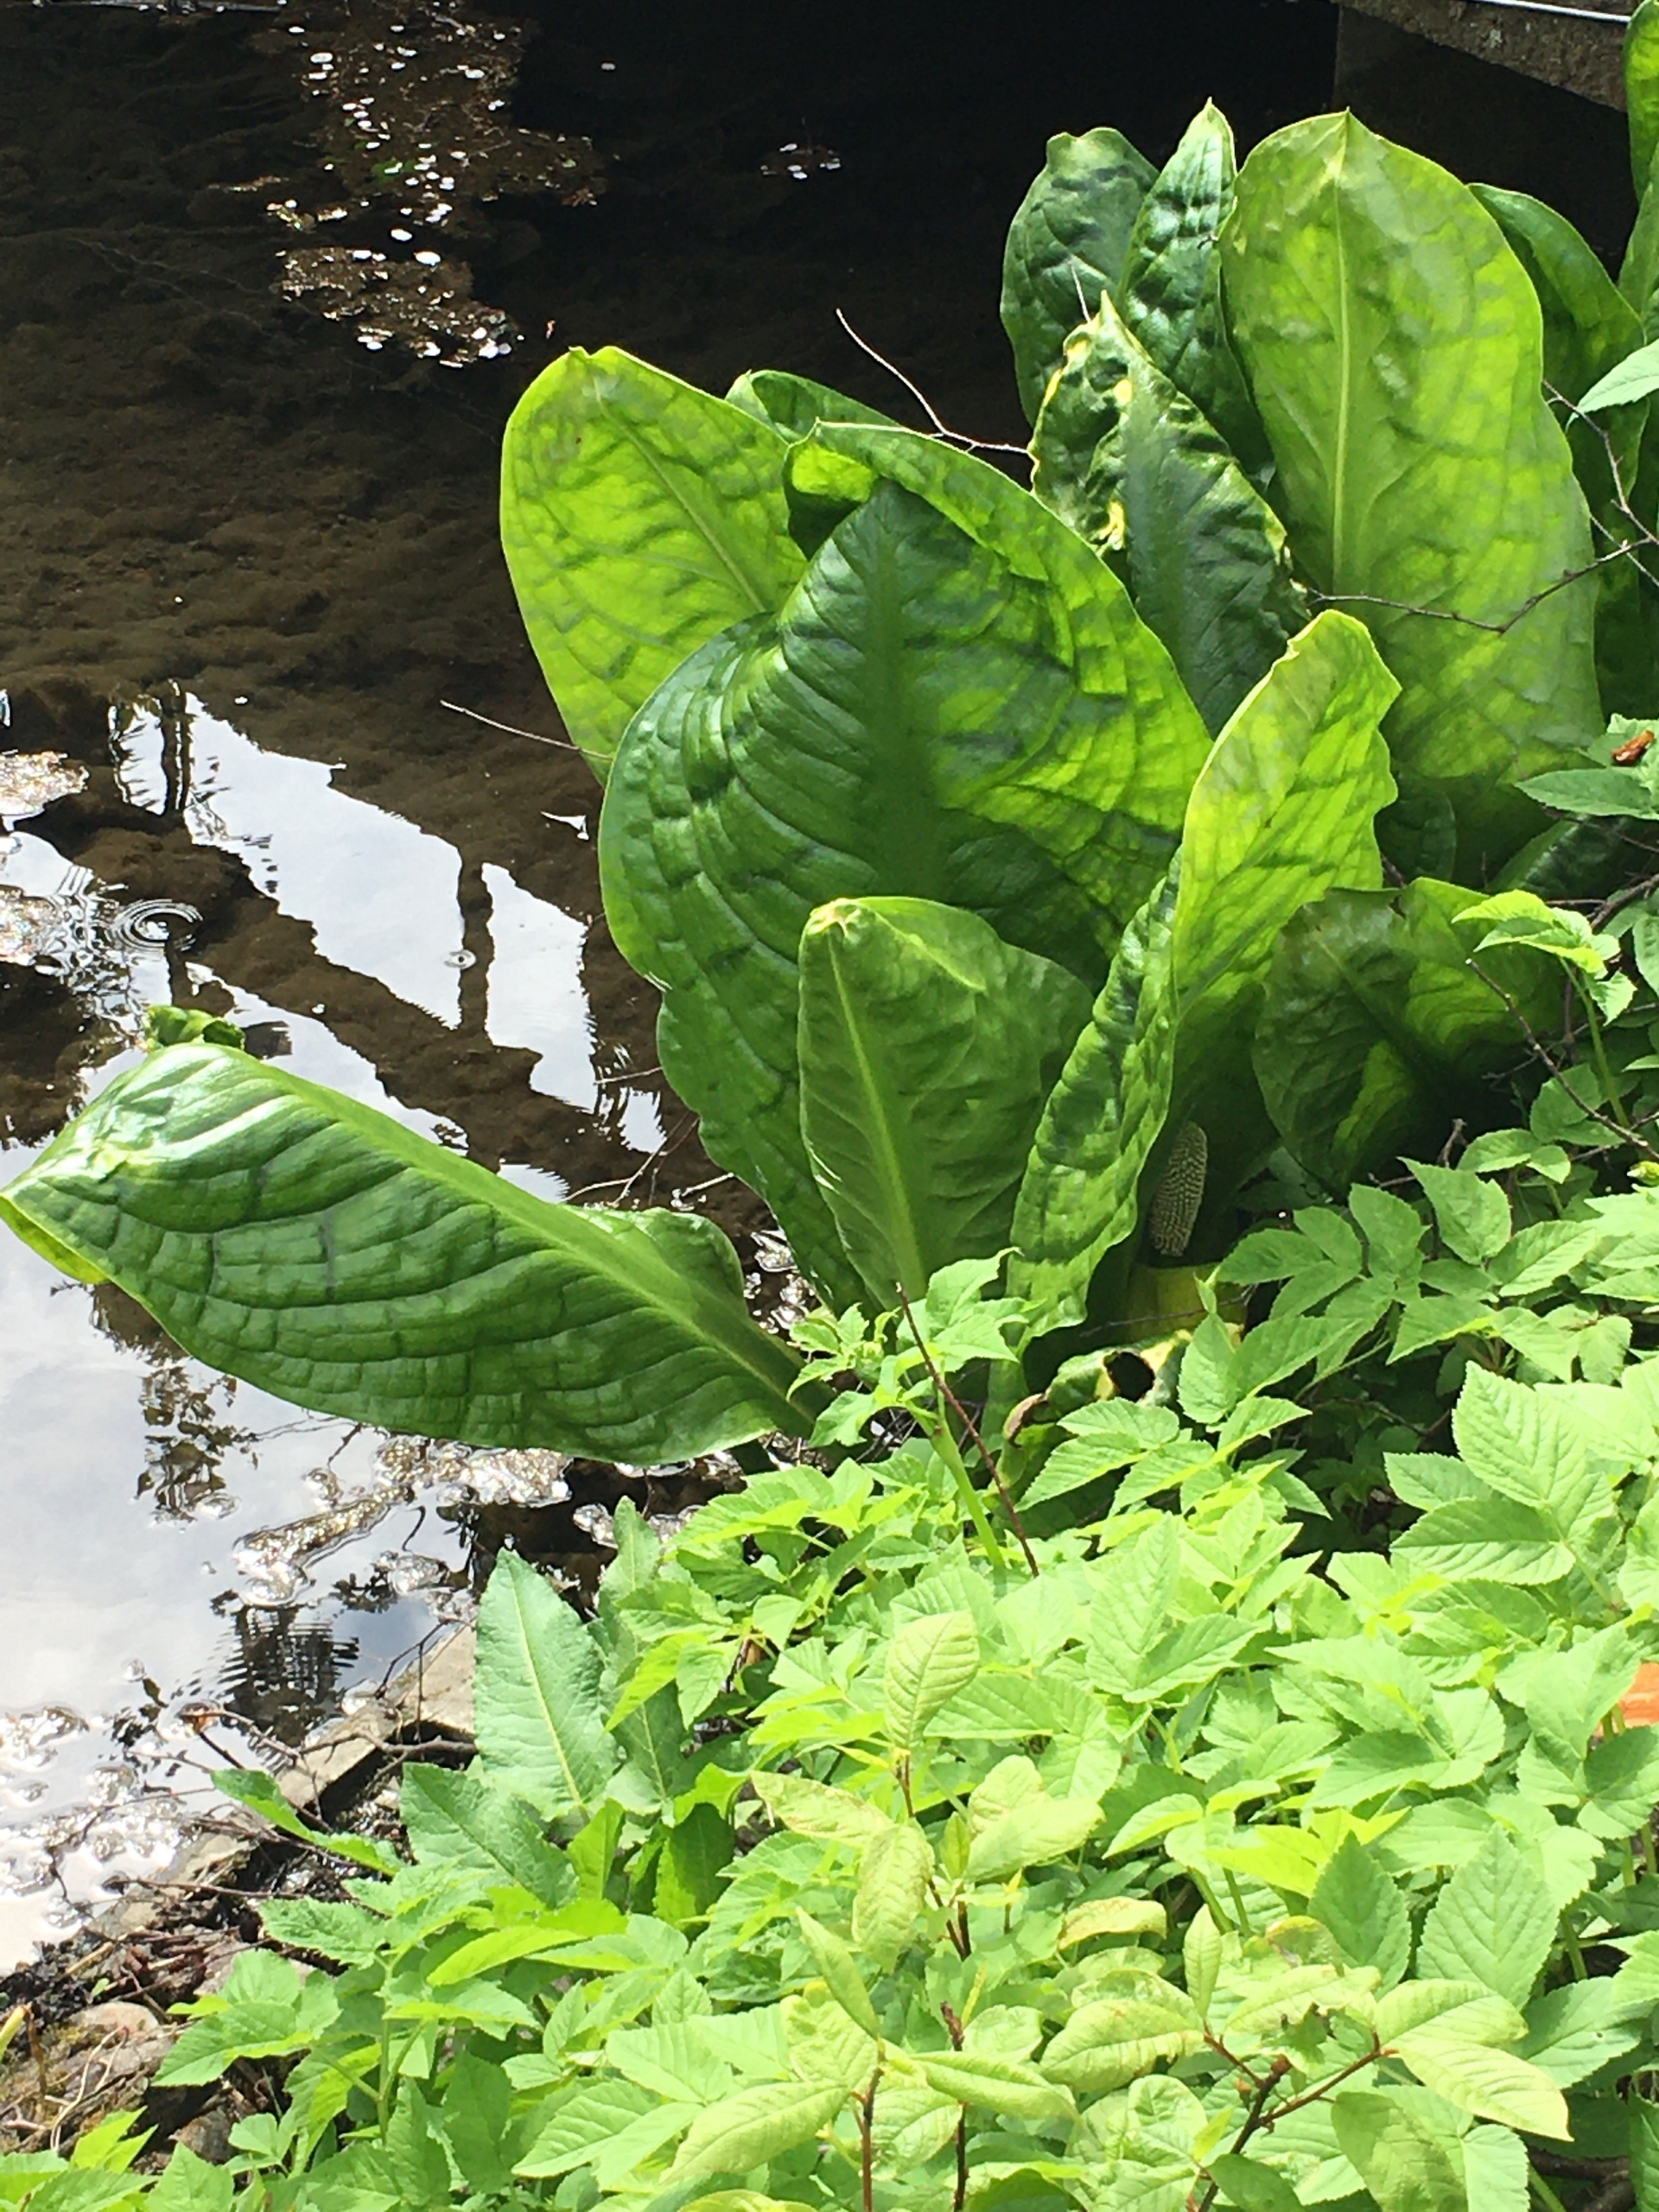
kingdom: Plantae
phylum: Tracheophyta
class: Liliopsida
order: Alismatales
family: Araceae
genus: Lysichiton
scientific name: Lysichiton americanus
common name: Gul kæmpekalla
